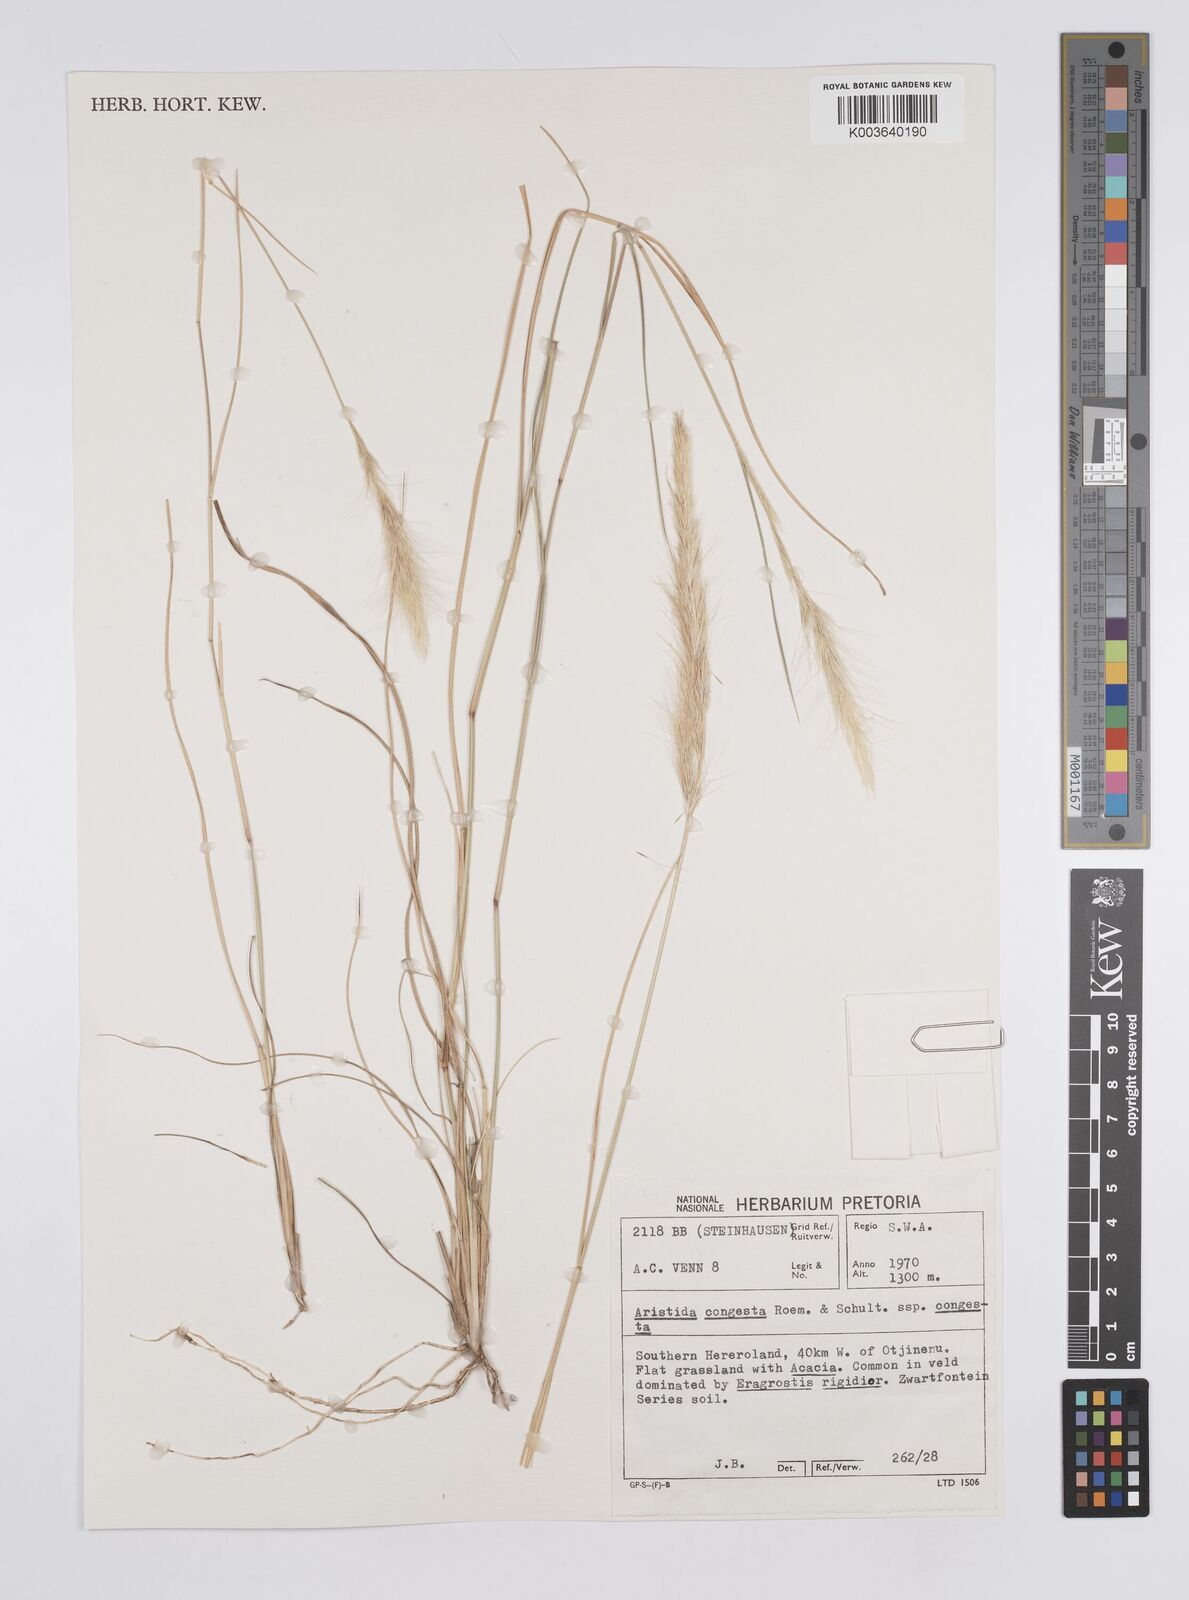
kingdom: Plantae
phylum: Tracheophyta
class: Liliopsida
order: Poales
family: Poaceae
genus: Aristida
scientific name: Aristida congesta
